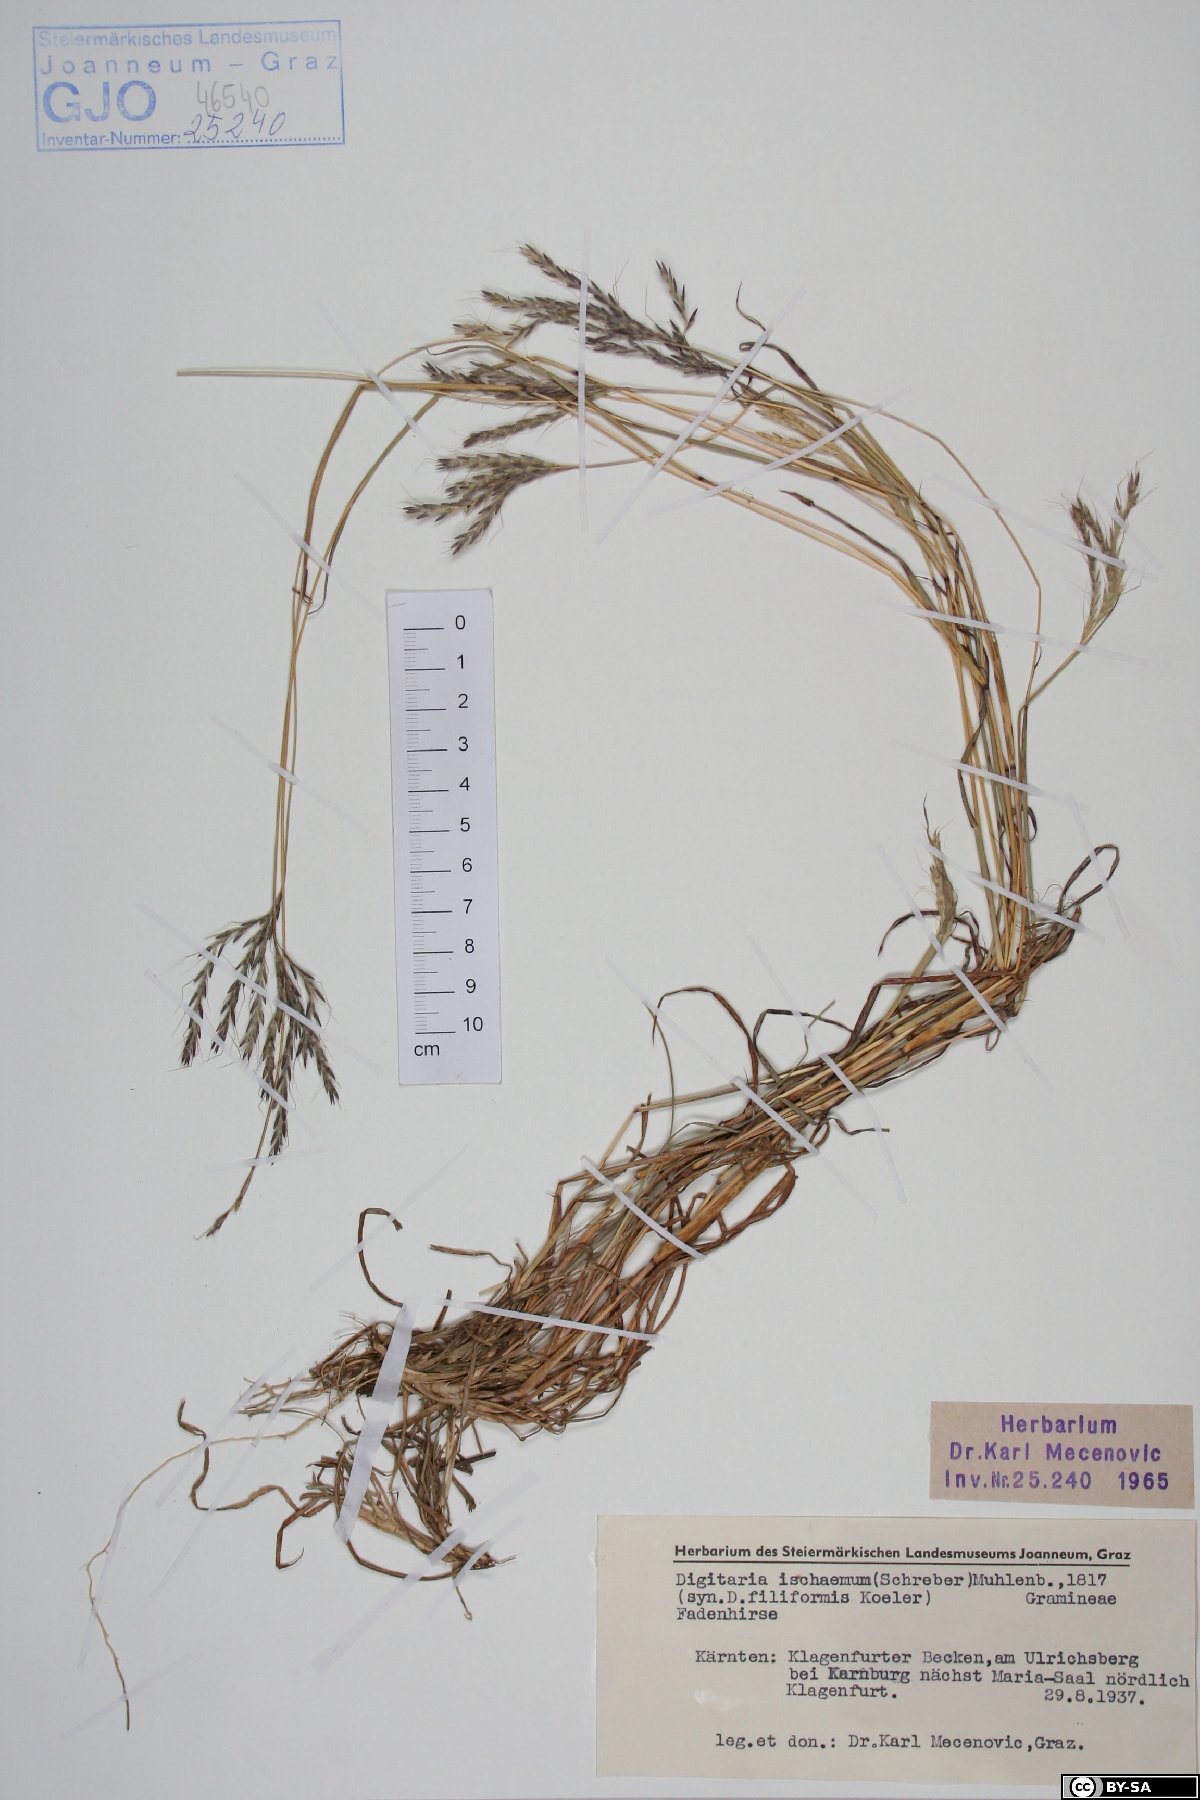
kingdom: Plantae
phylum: Tracheophyta
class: Liliopsida
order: Poales
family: Poaceae
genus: Digitaria
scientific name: Digitaria ischaemum
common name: Smooth crabgrass
